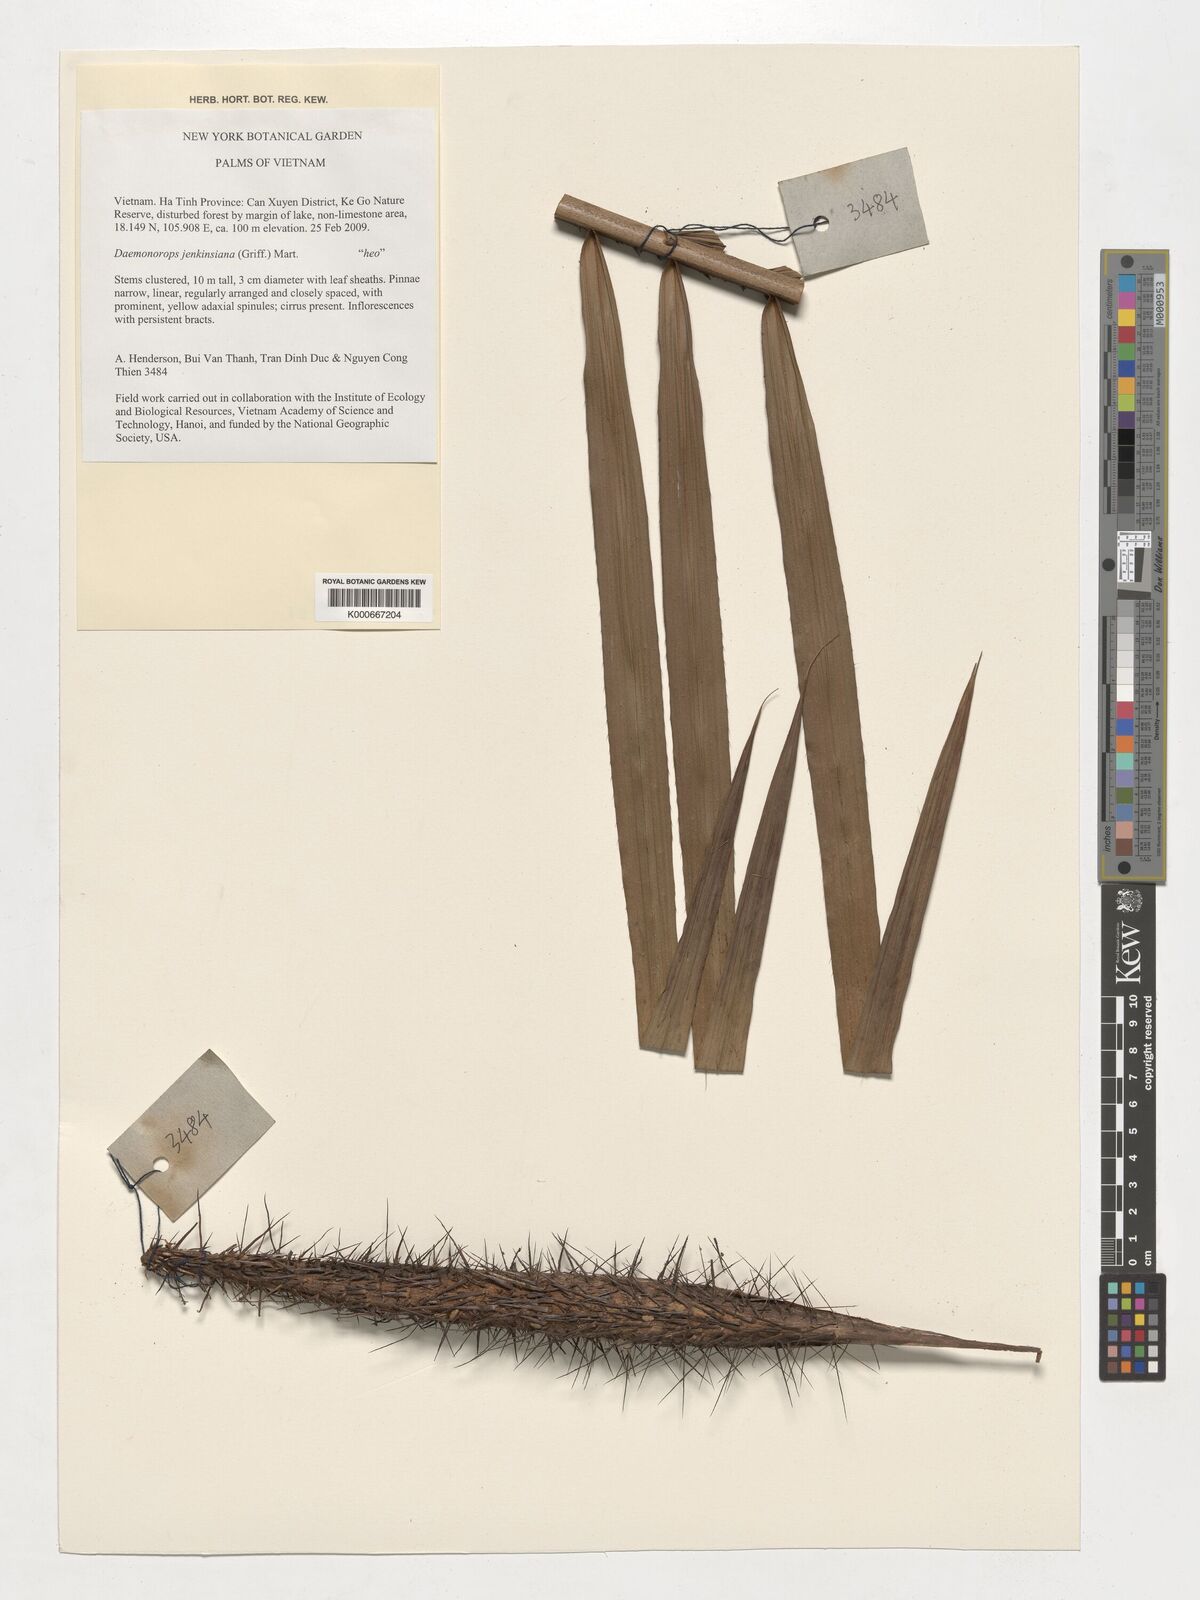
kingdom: Plantae
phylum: Tracheophyta
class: Liliopsida
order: Arecales
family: Arecaceae
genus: Calamus
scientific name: Calamus melanochaetes
